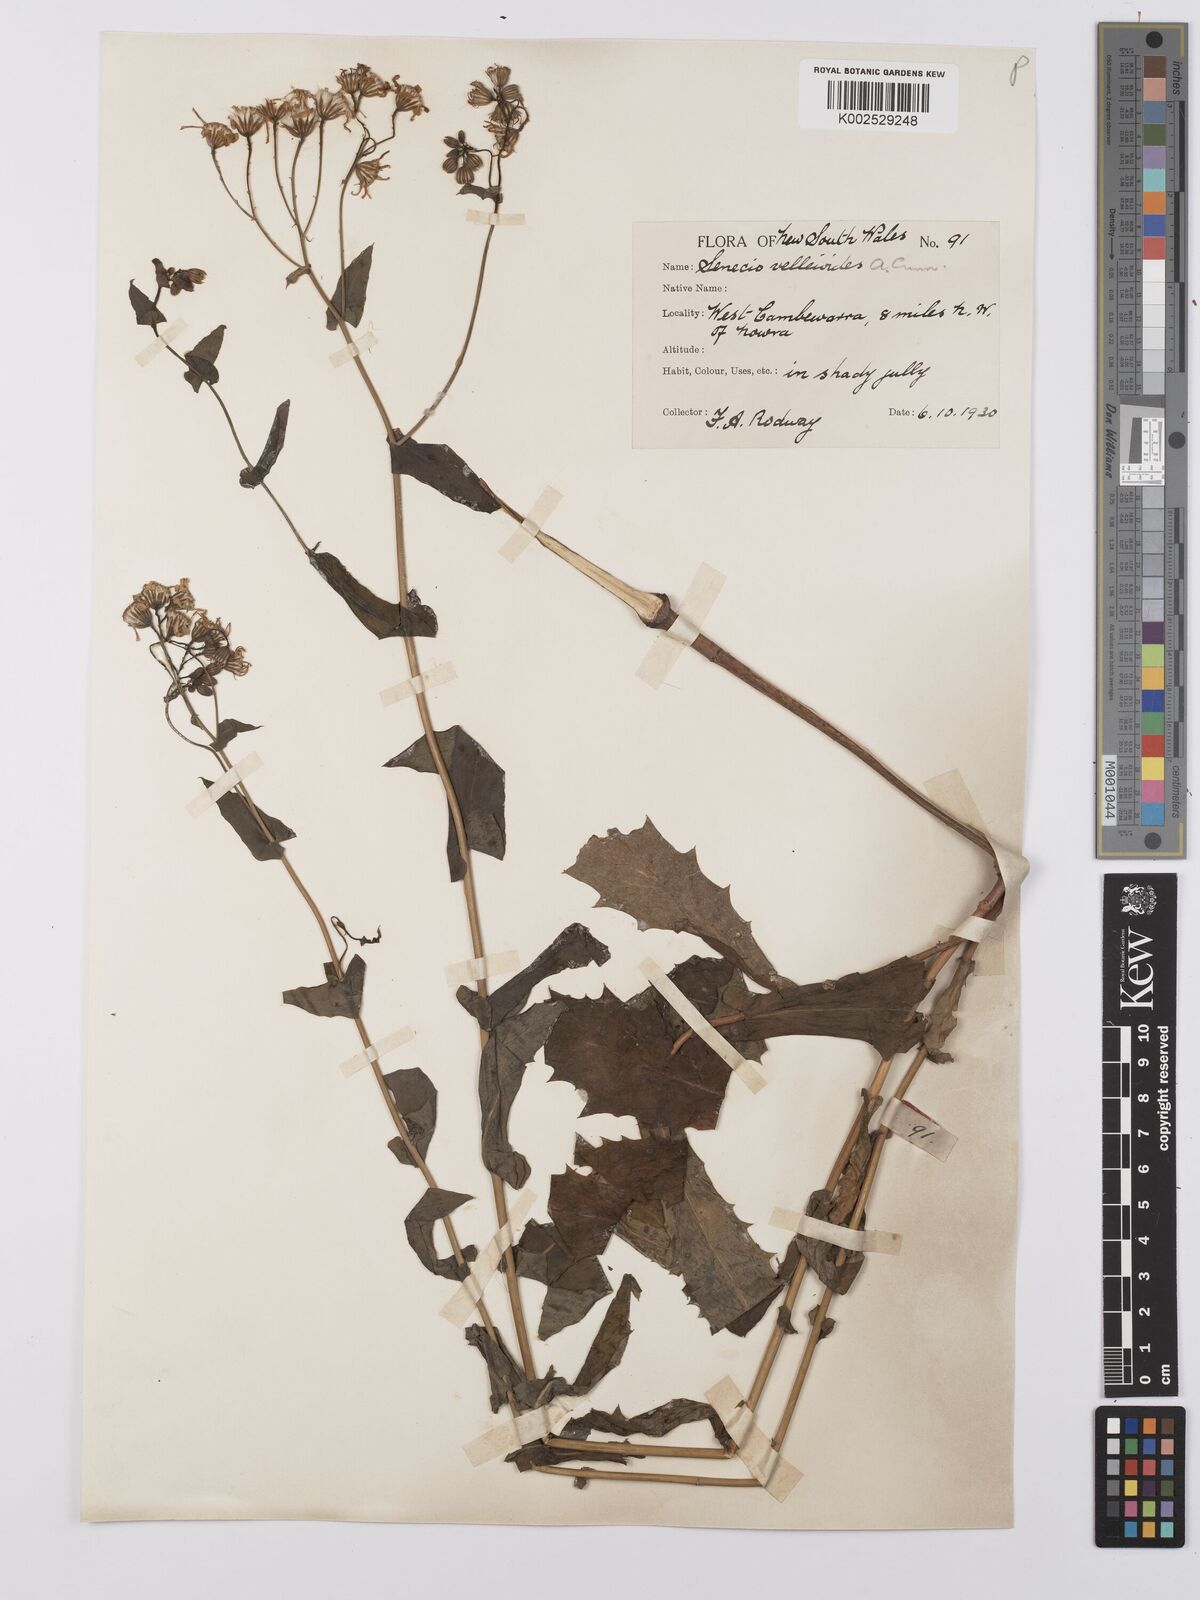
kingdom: Plantae
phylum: Tracheophyta
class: Magnoliopsida
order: Asterales
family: Asteraceae
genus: Lordhowea
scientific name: Lordhowea velleioides
